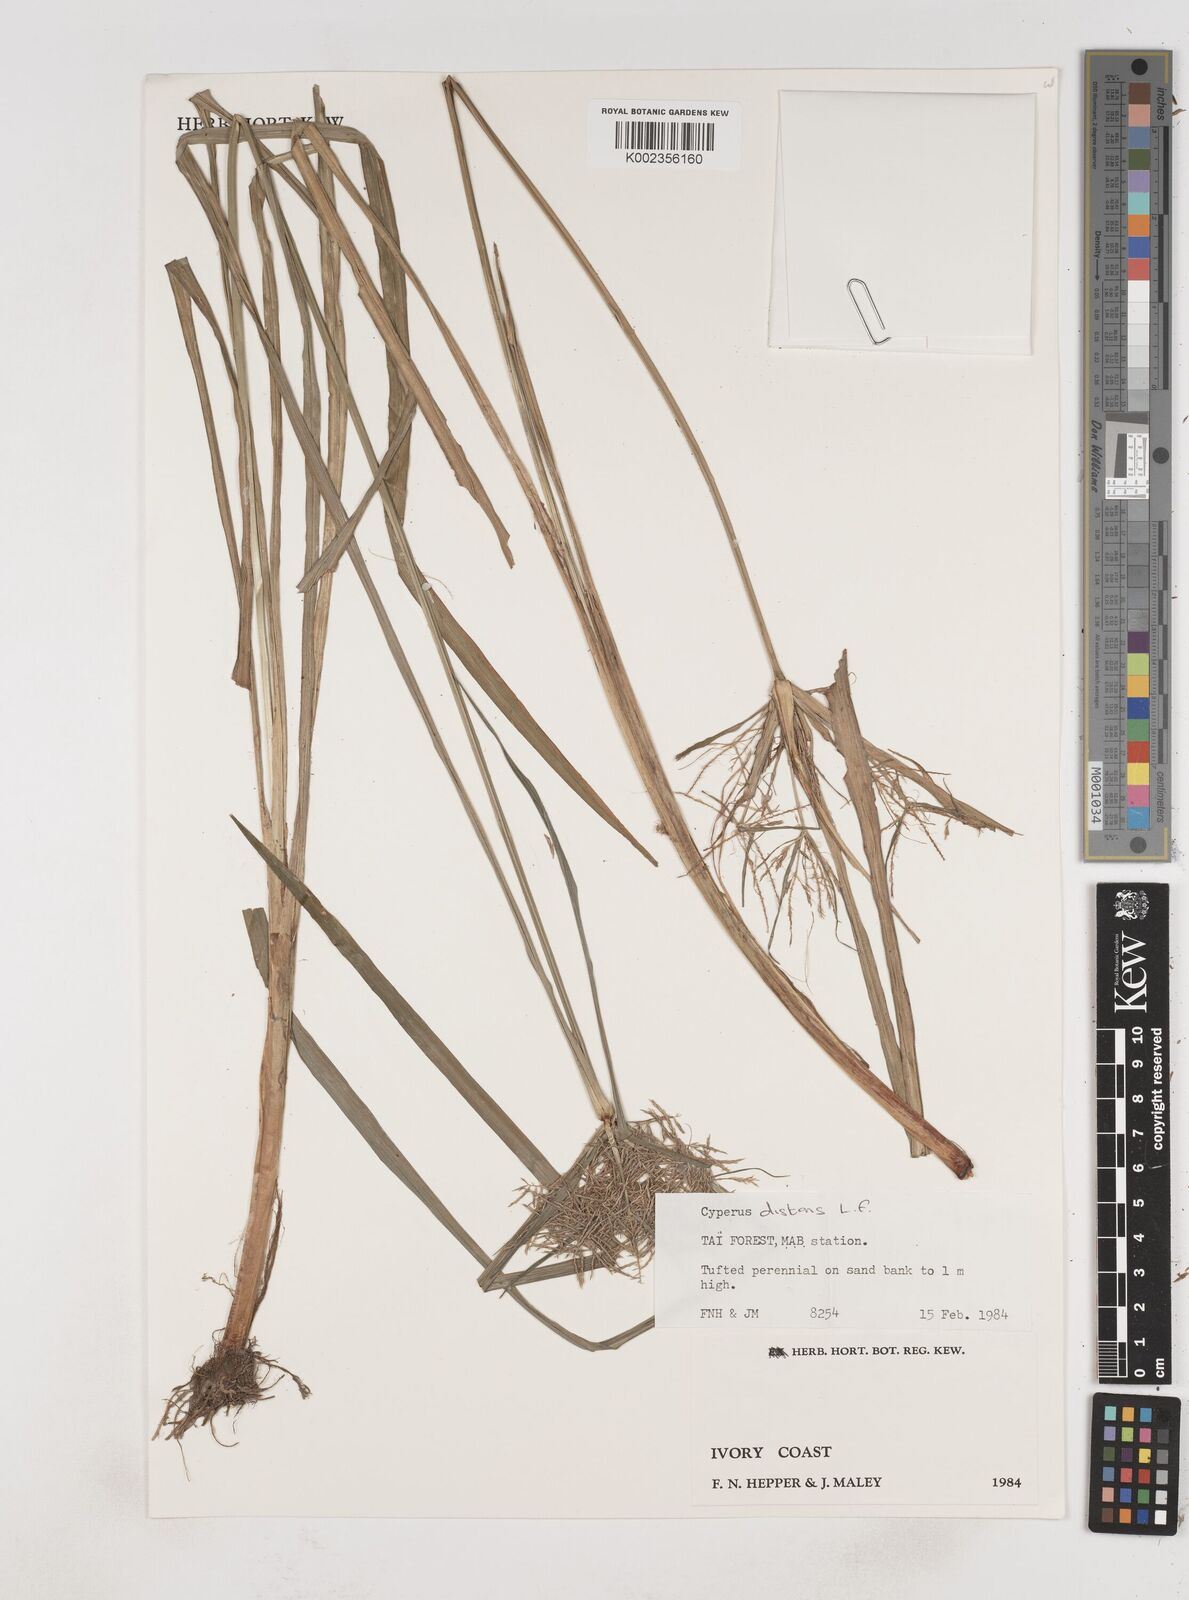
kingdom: Plantae
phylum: Tracheophyta
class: Liliopsida
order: Poales
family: Cyperaceae
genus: Cyperus
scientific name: Cyperus distans
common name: Slender cyperus
